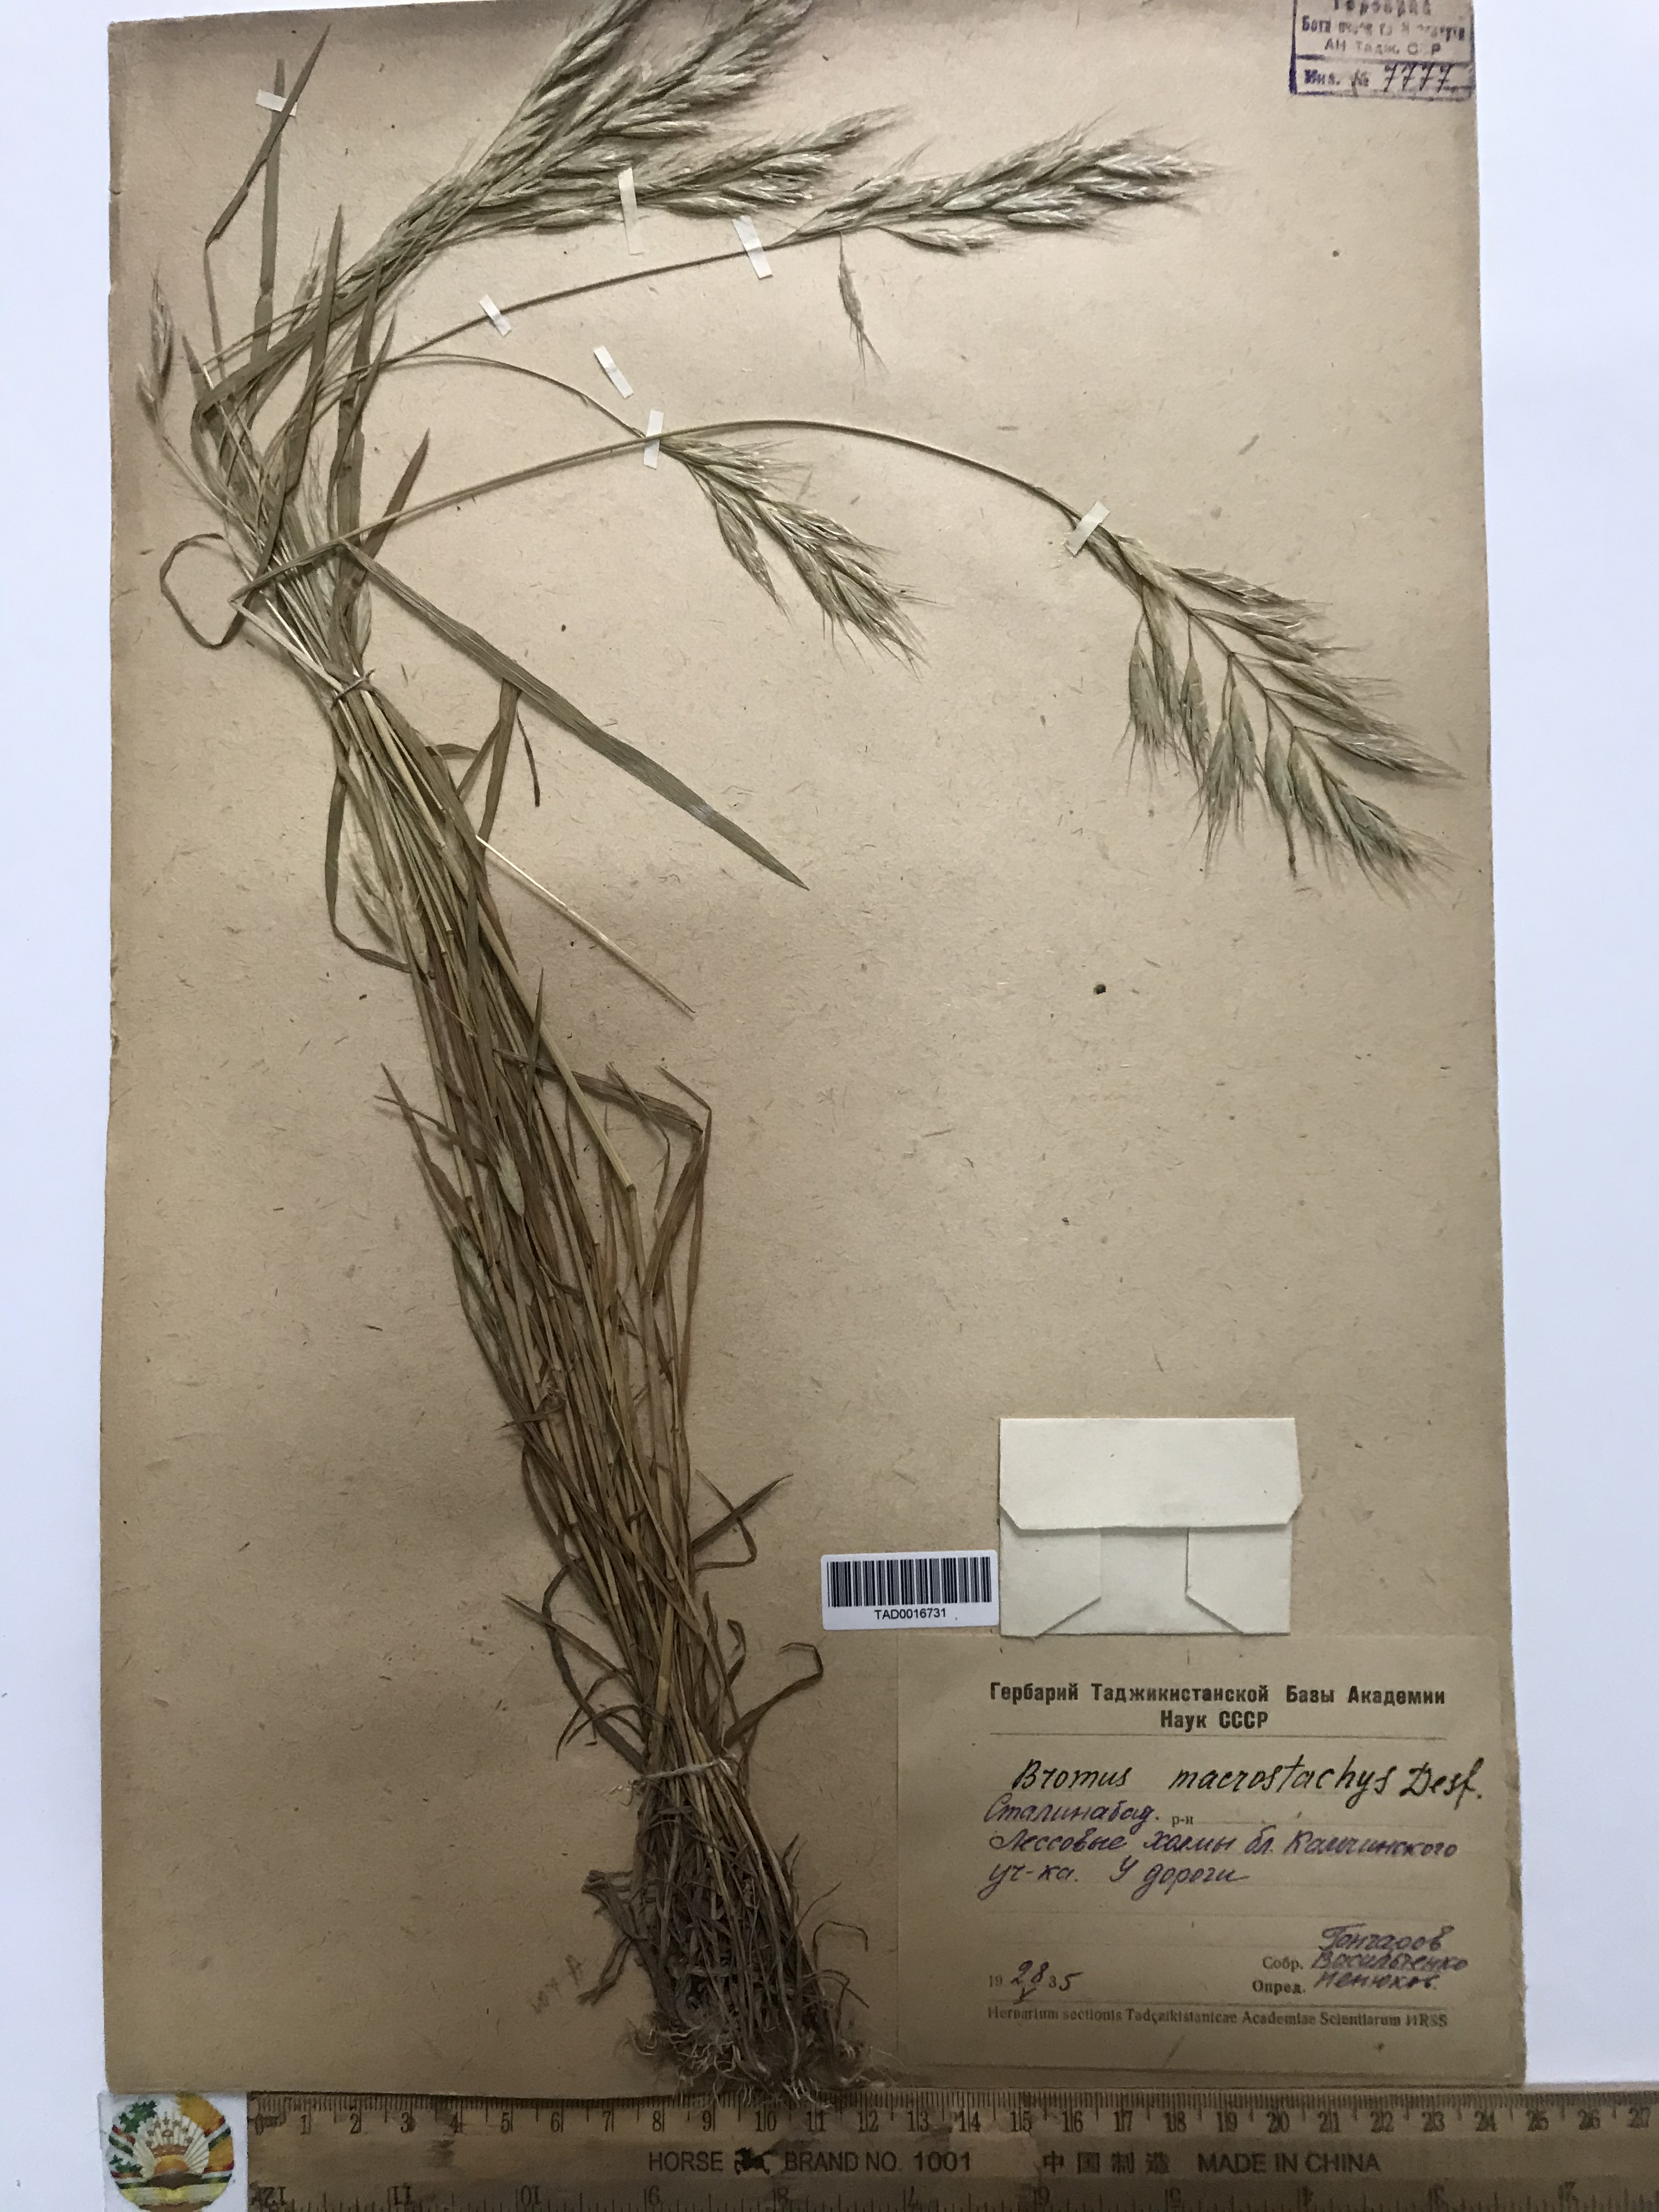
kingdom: Plantae
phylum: Tracheophyta
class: Liliopsida
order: Poales
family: Poaceae
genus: Bromus
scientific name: Bromus lanceolatus
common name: Mediterranean brome
